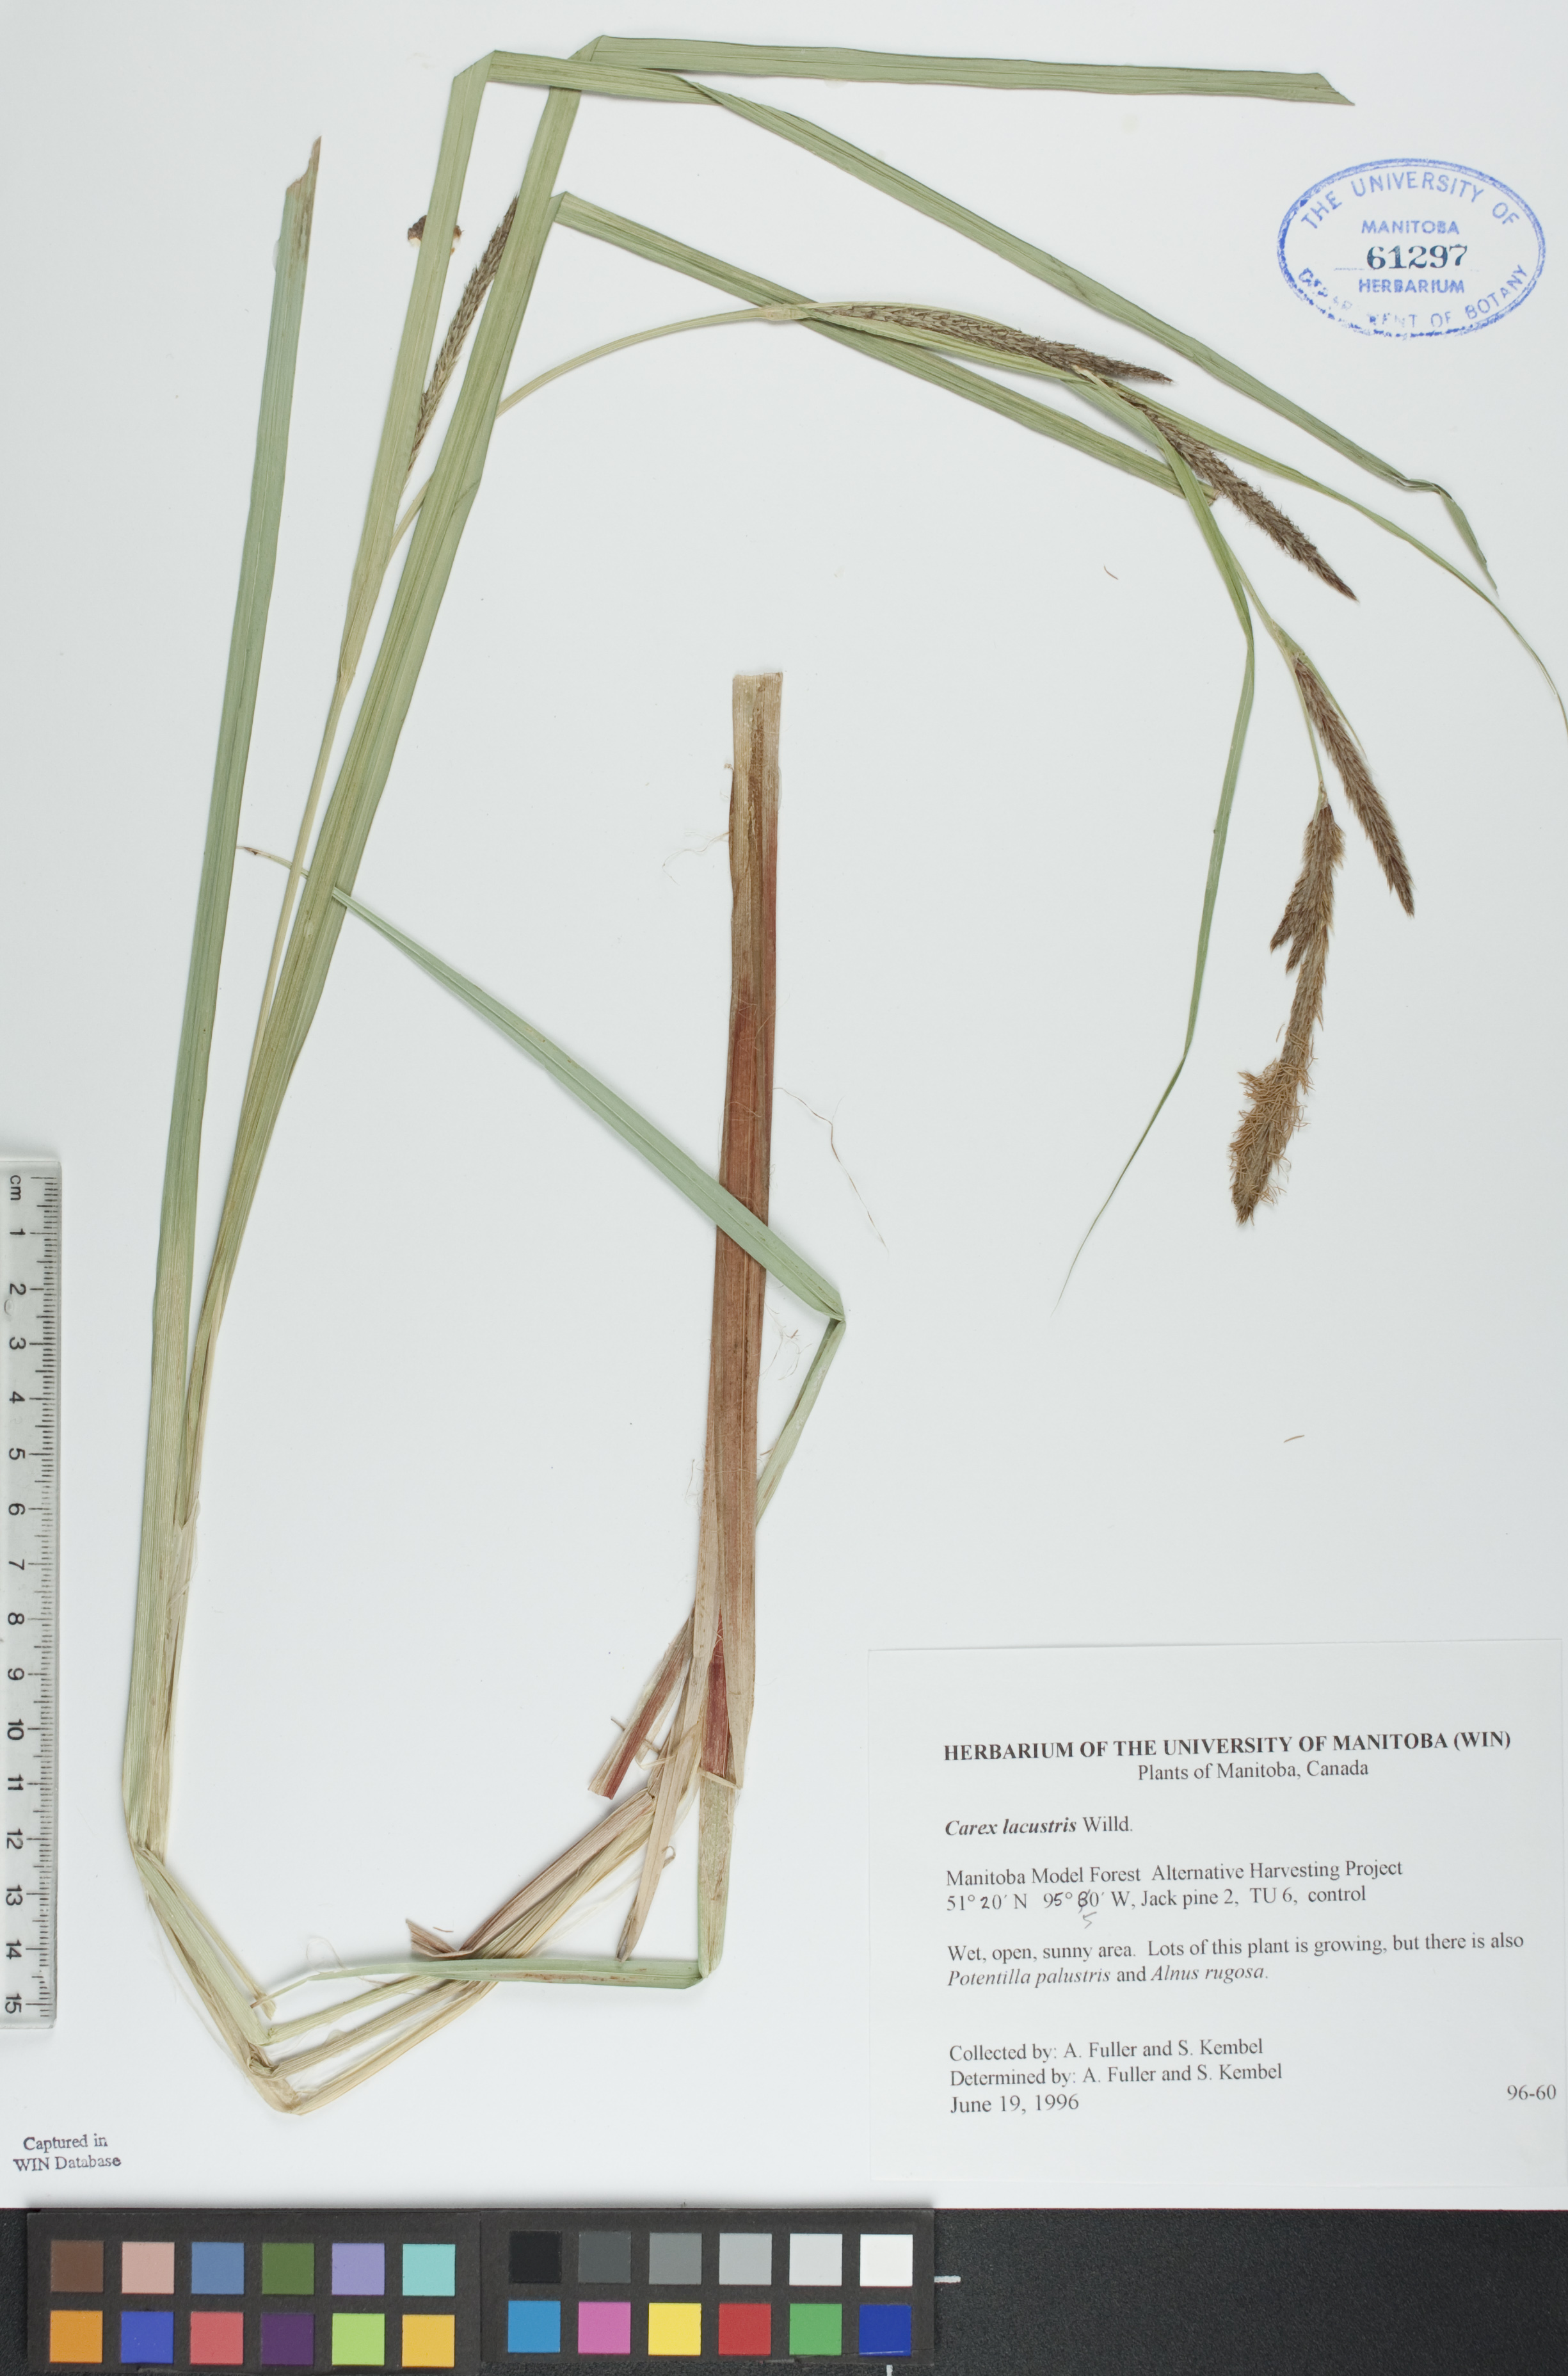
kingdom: Plantae
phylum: Tracheophyta
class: Liliopsida
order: Poales
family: Cyperaceae
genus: Carex
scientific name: Carex lacustris
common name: Common lake sedge
